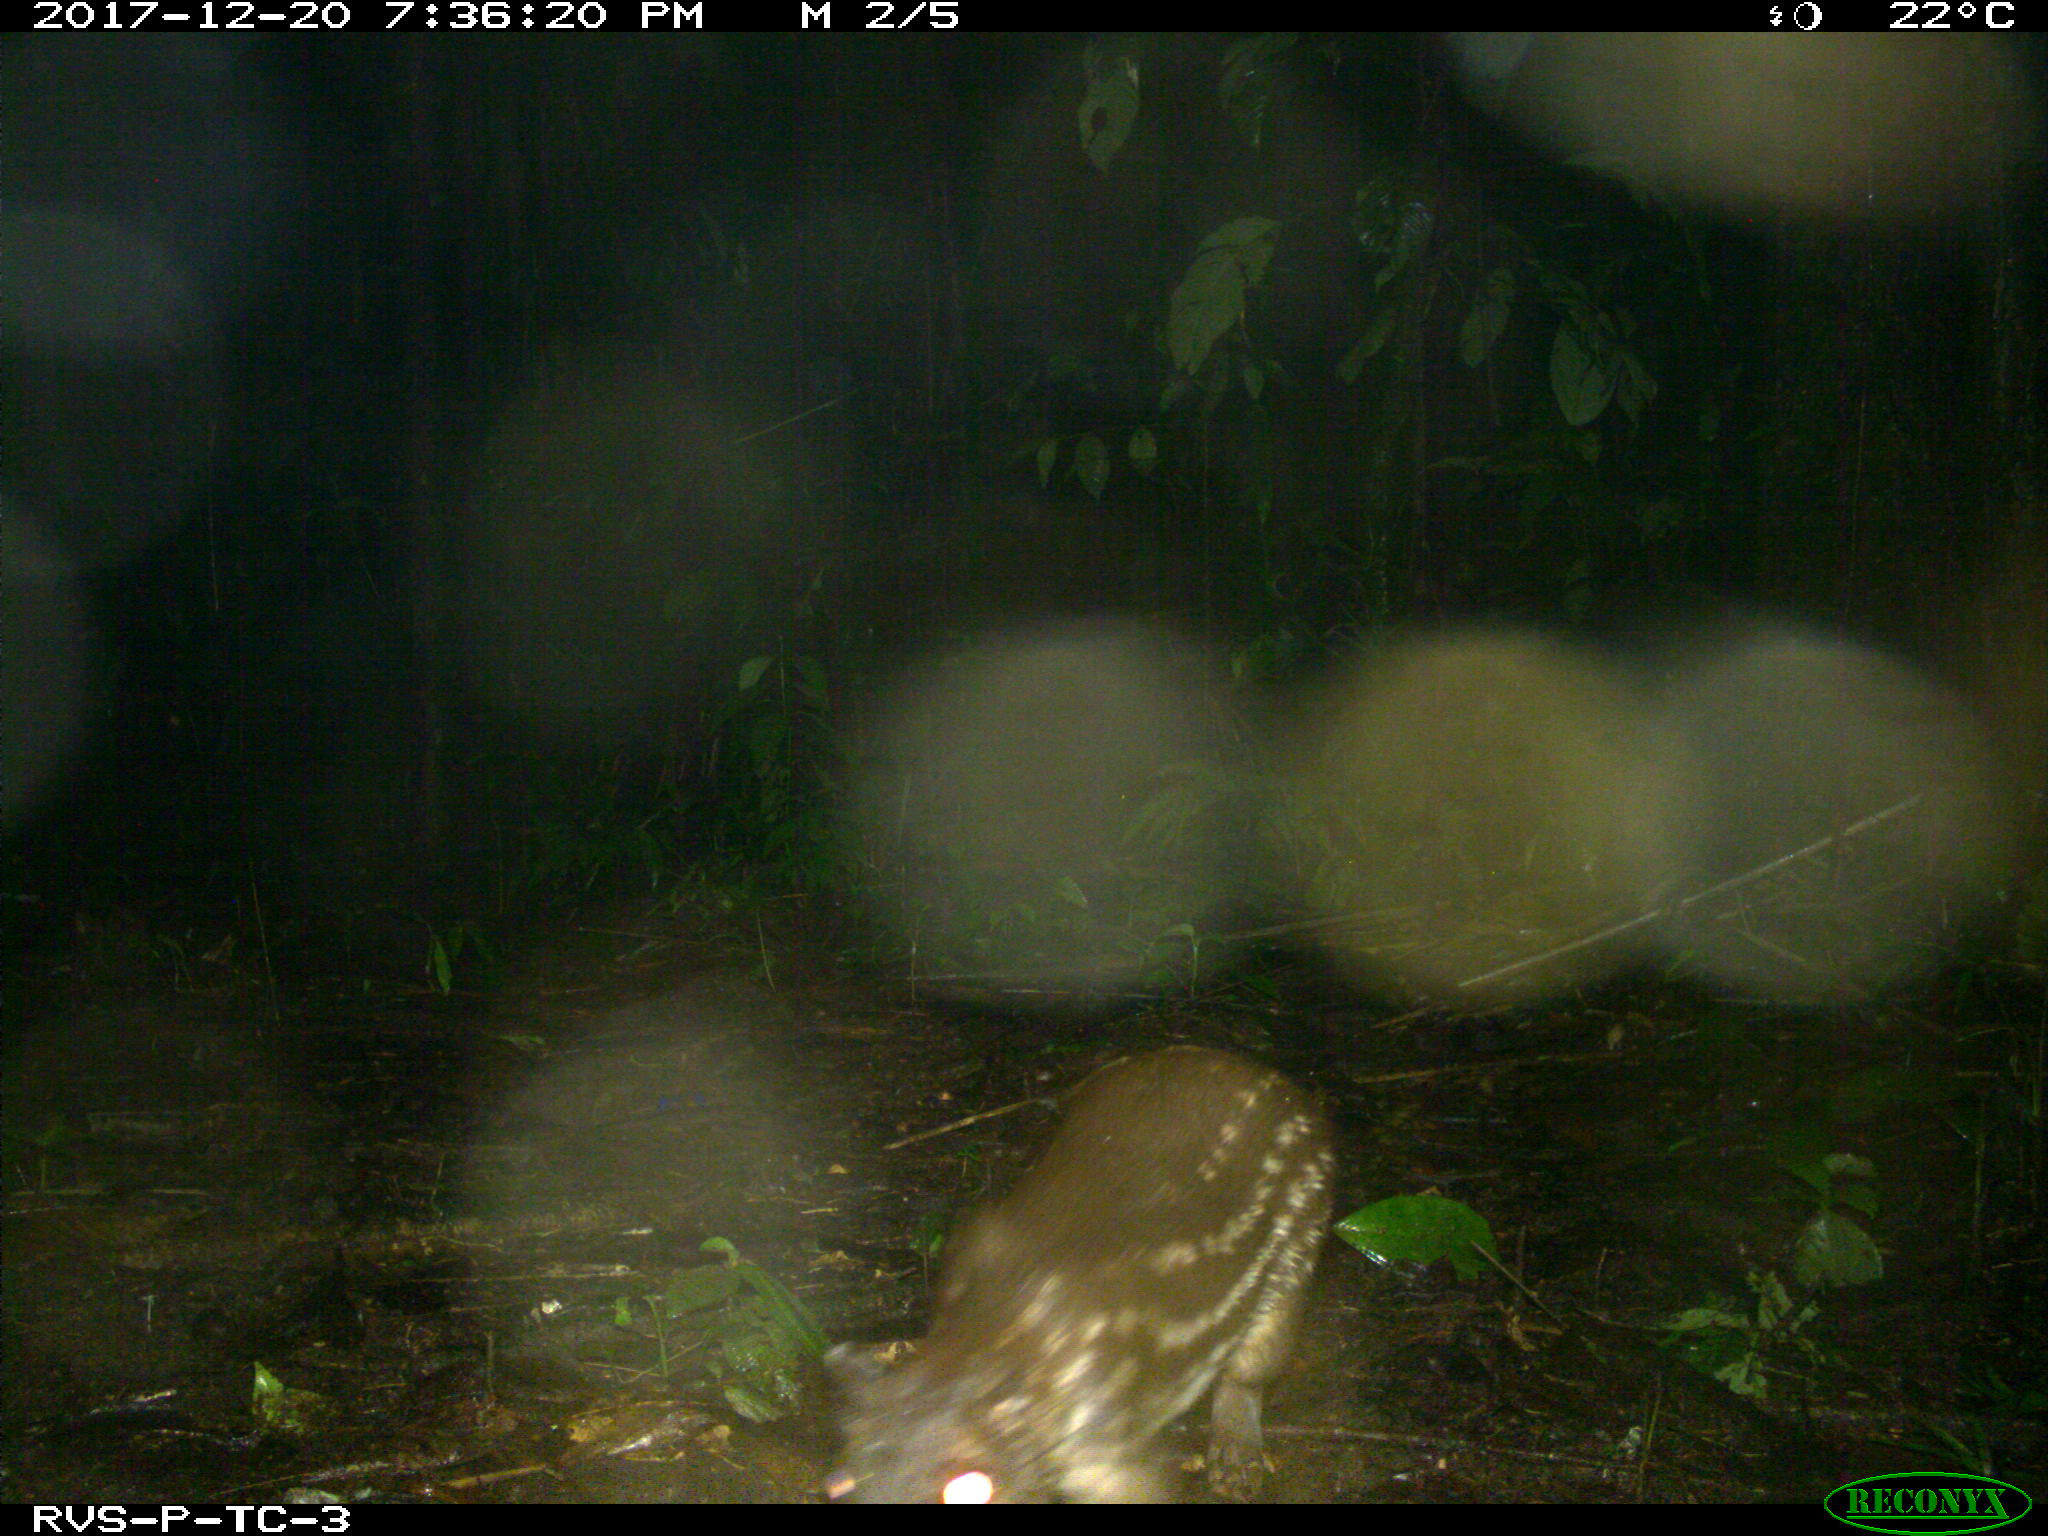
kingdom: Animalia
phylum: Chordata
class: Mammalia
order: Rodentia
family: Cuniculidae
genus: Cuniculus
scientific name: Cuniculus paca
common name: Lowland paca
